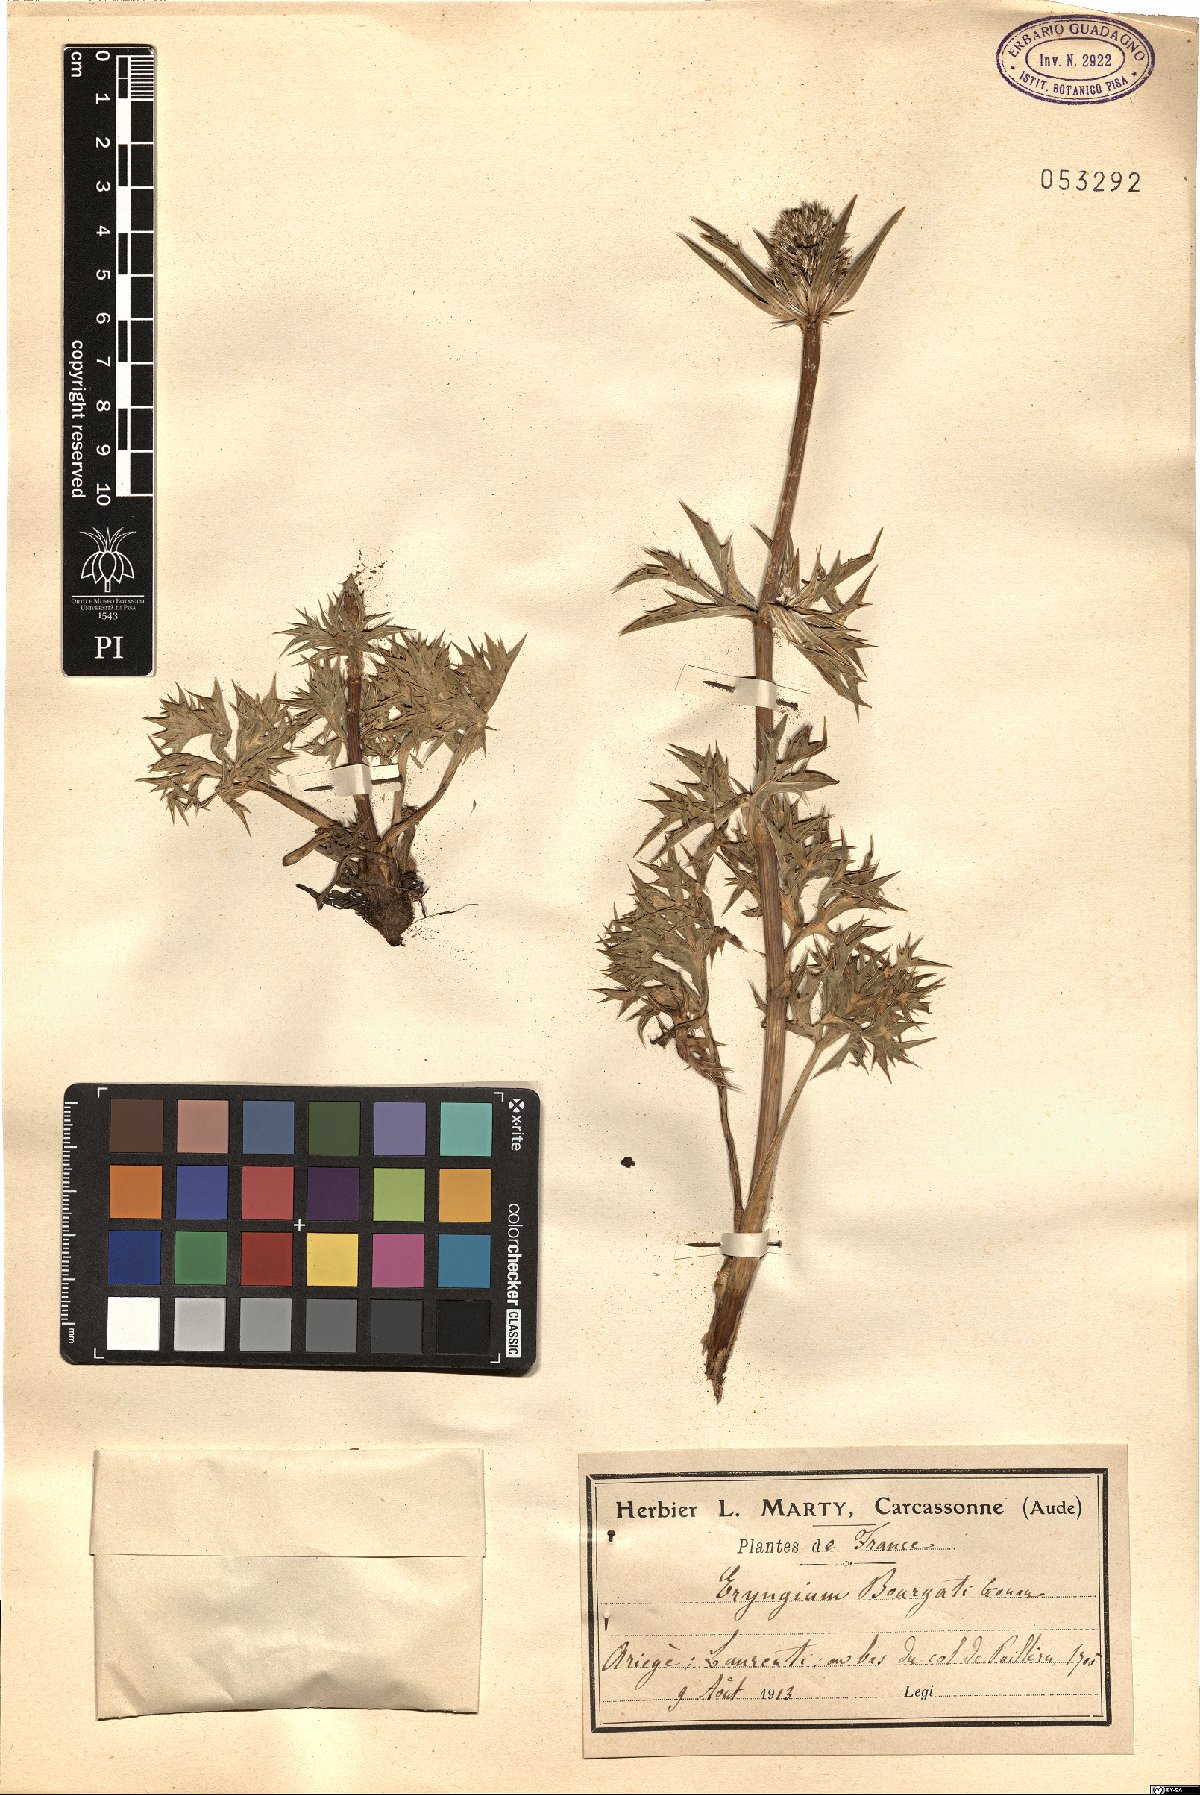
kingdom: Plantae
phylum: Tracheophyta
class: Magnoliopsida
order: Apiales
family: Apiaceae
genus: Eryngium
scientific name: Eryngium bourgatii
